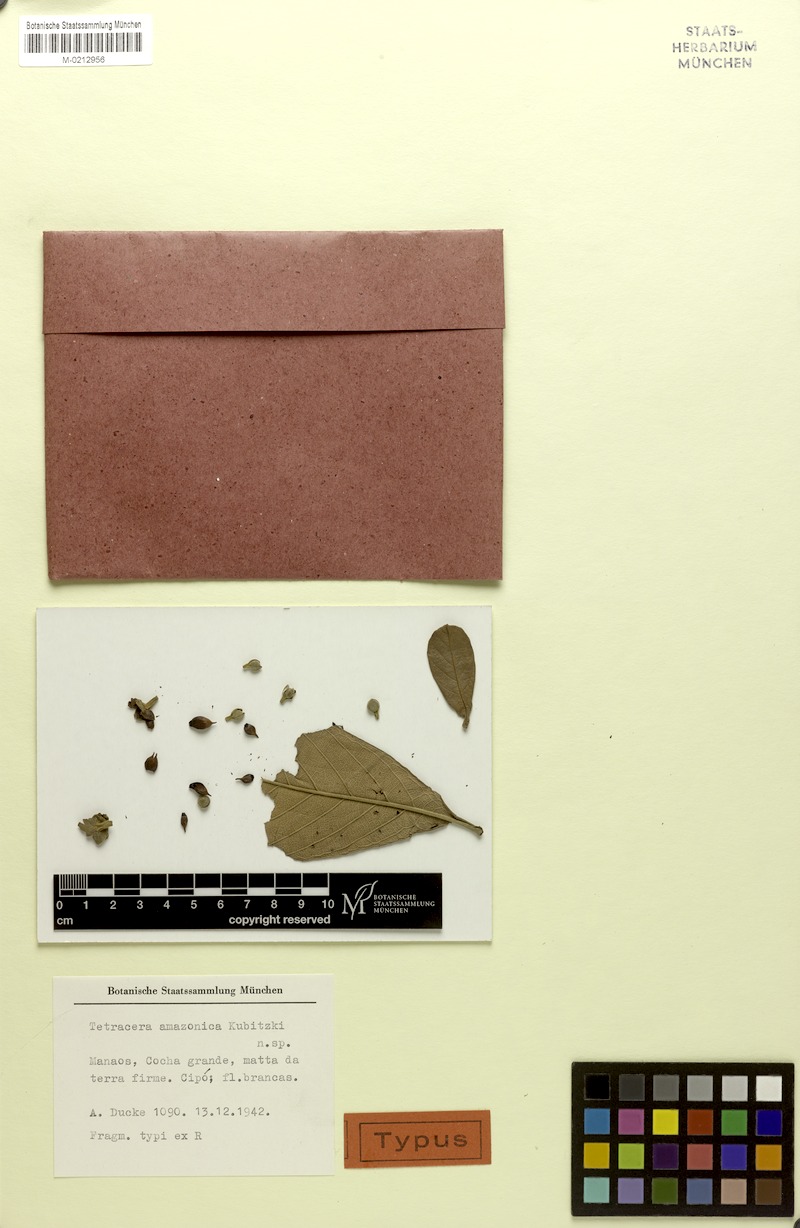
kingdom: Plantae
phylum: Tracheophyta
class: Magnoliopsida
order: Dilleniales
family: Dilleniaceae
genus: Tetracera
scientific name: Tetracera amazonica
